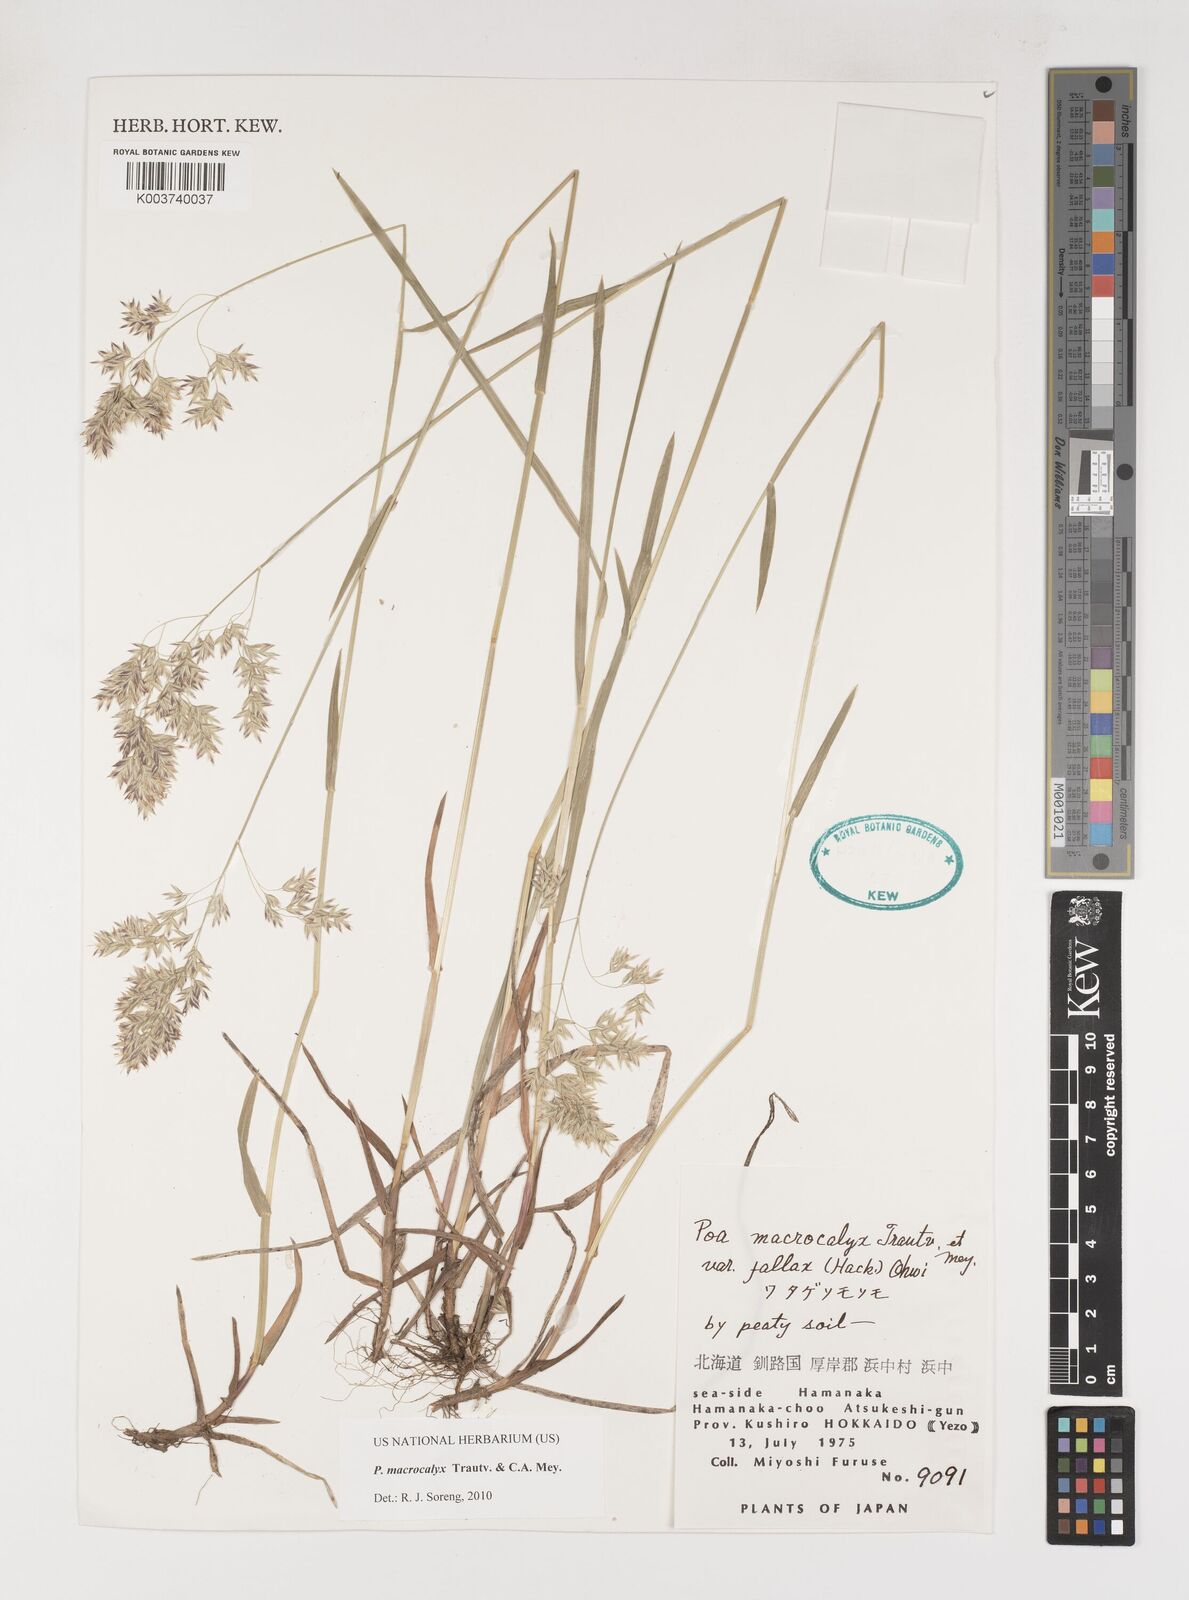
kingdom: Plantae
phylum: Tracheophyta
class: Liliopsida
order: Poales
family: Poaceae
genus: Poa
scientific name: Poa macrocalyx
